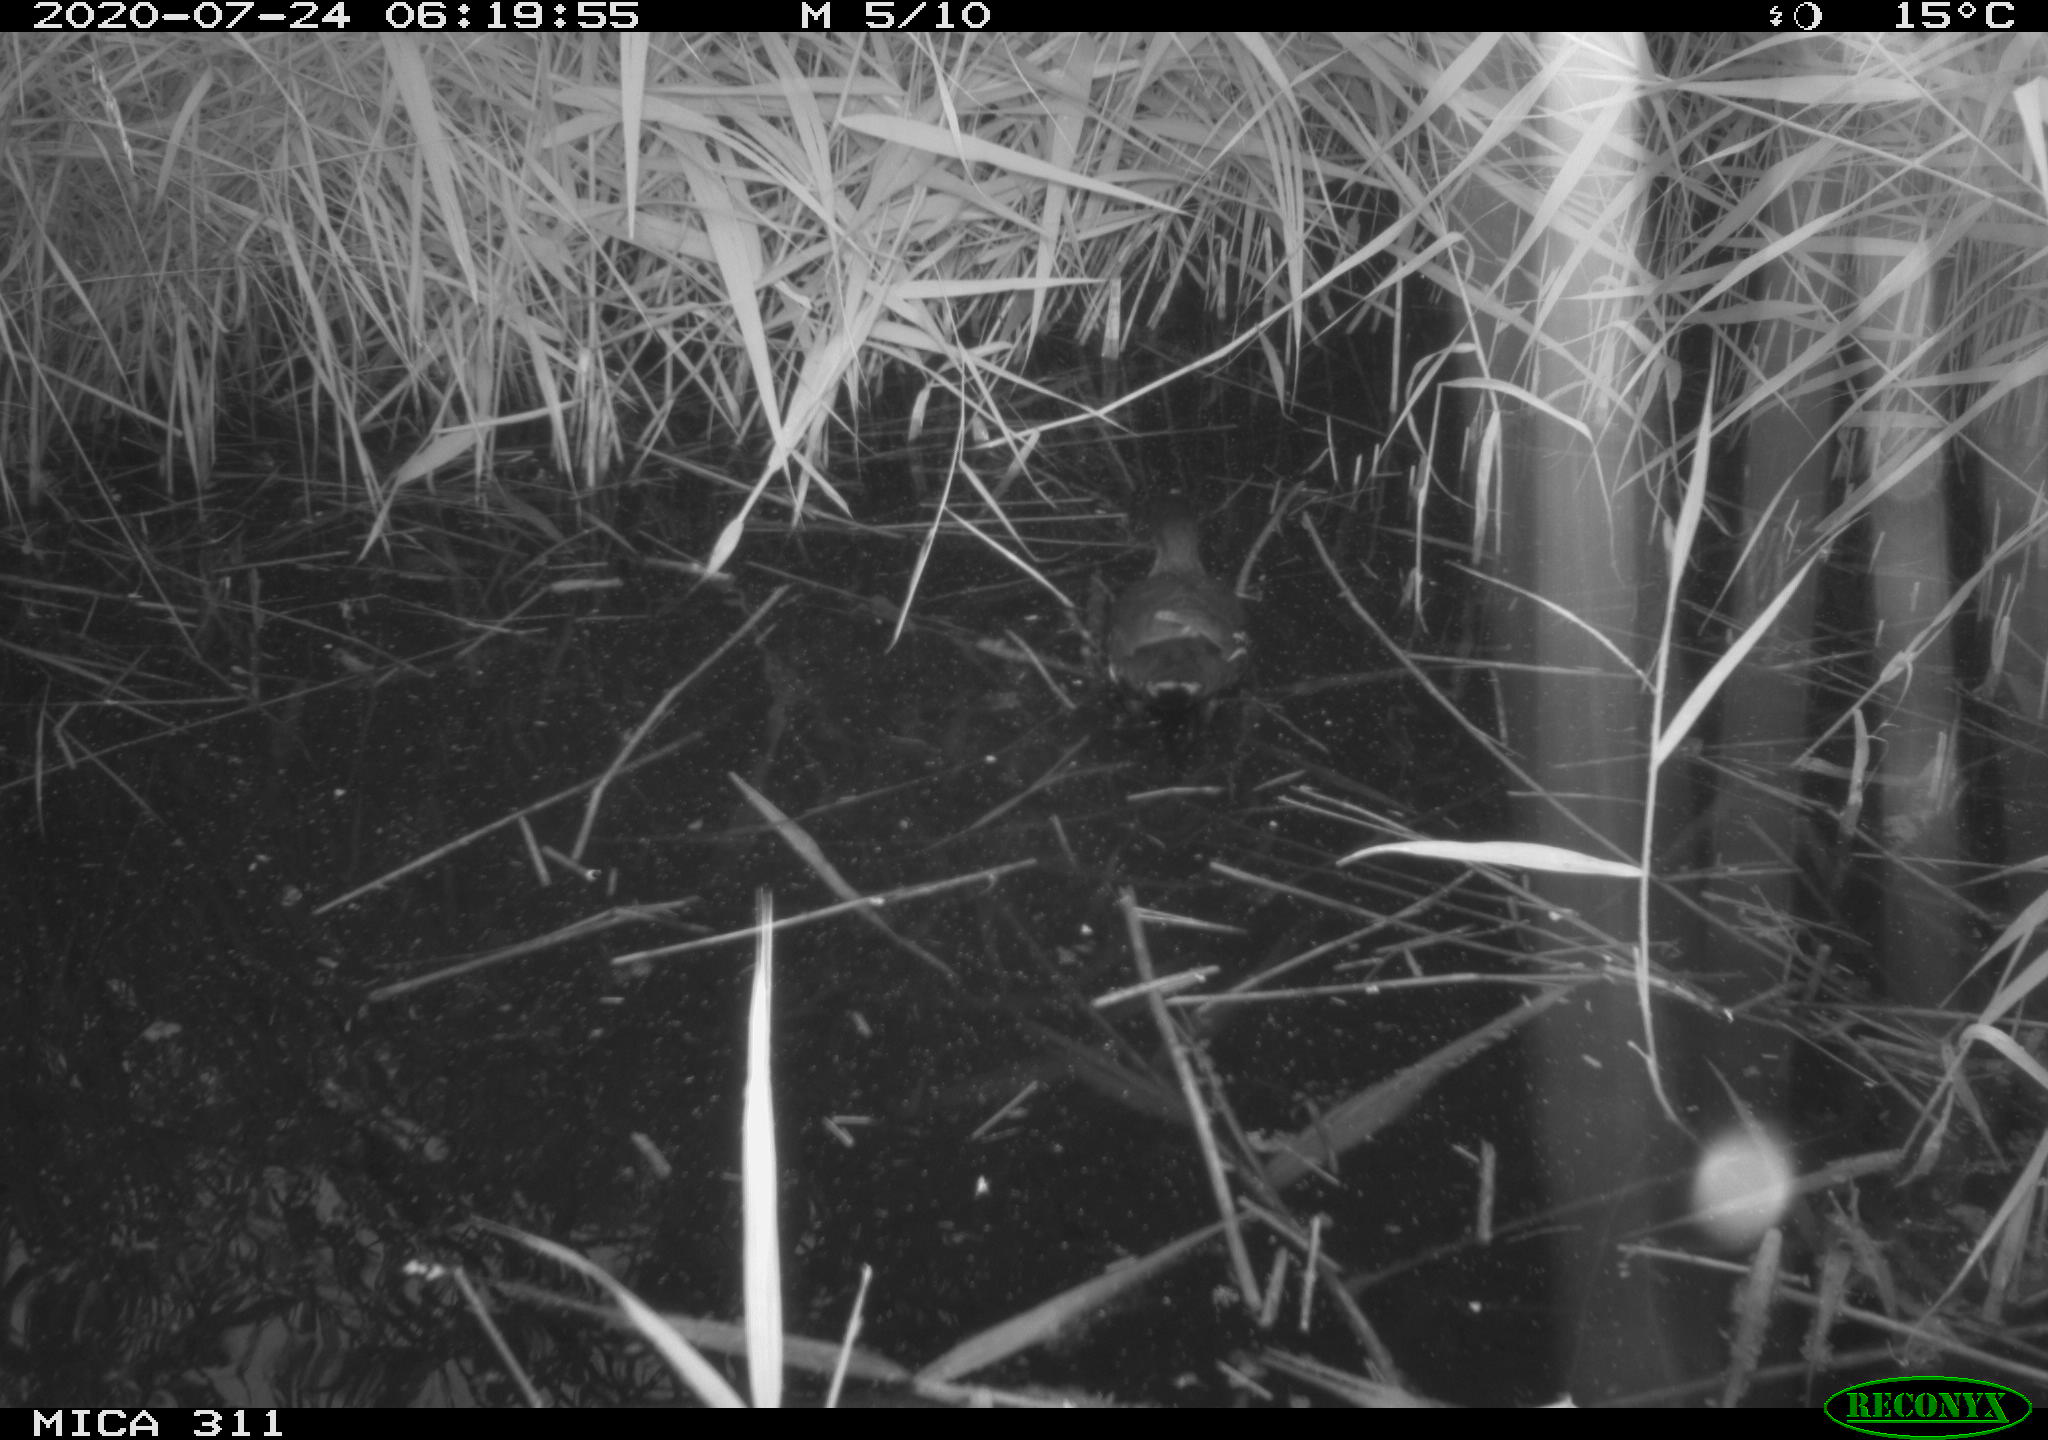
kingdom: Animalia
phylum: Chordata
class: Aves
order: Anseriformes
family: Anatidae
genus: Anas
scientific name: Anas platyrhynchos
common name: Mallard
